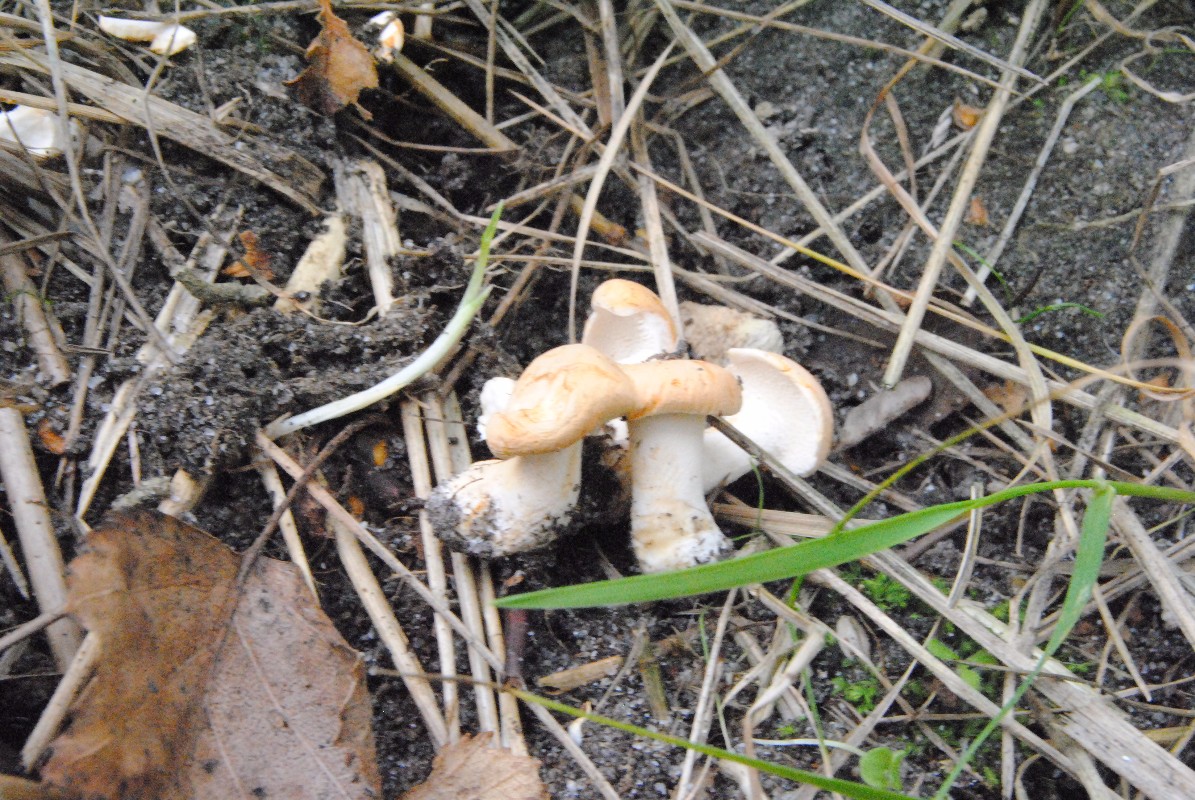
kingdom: Fungi
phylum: Basidiomycota
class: Agaricomycetes
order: Cantharellales
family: Hydnaceae
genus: Hydnum
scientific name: Hydnum repandum
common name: almindelig pigsvamp
